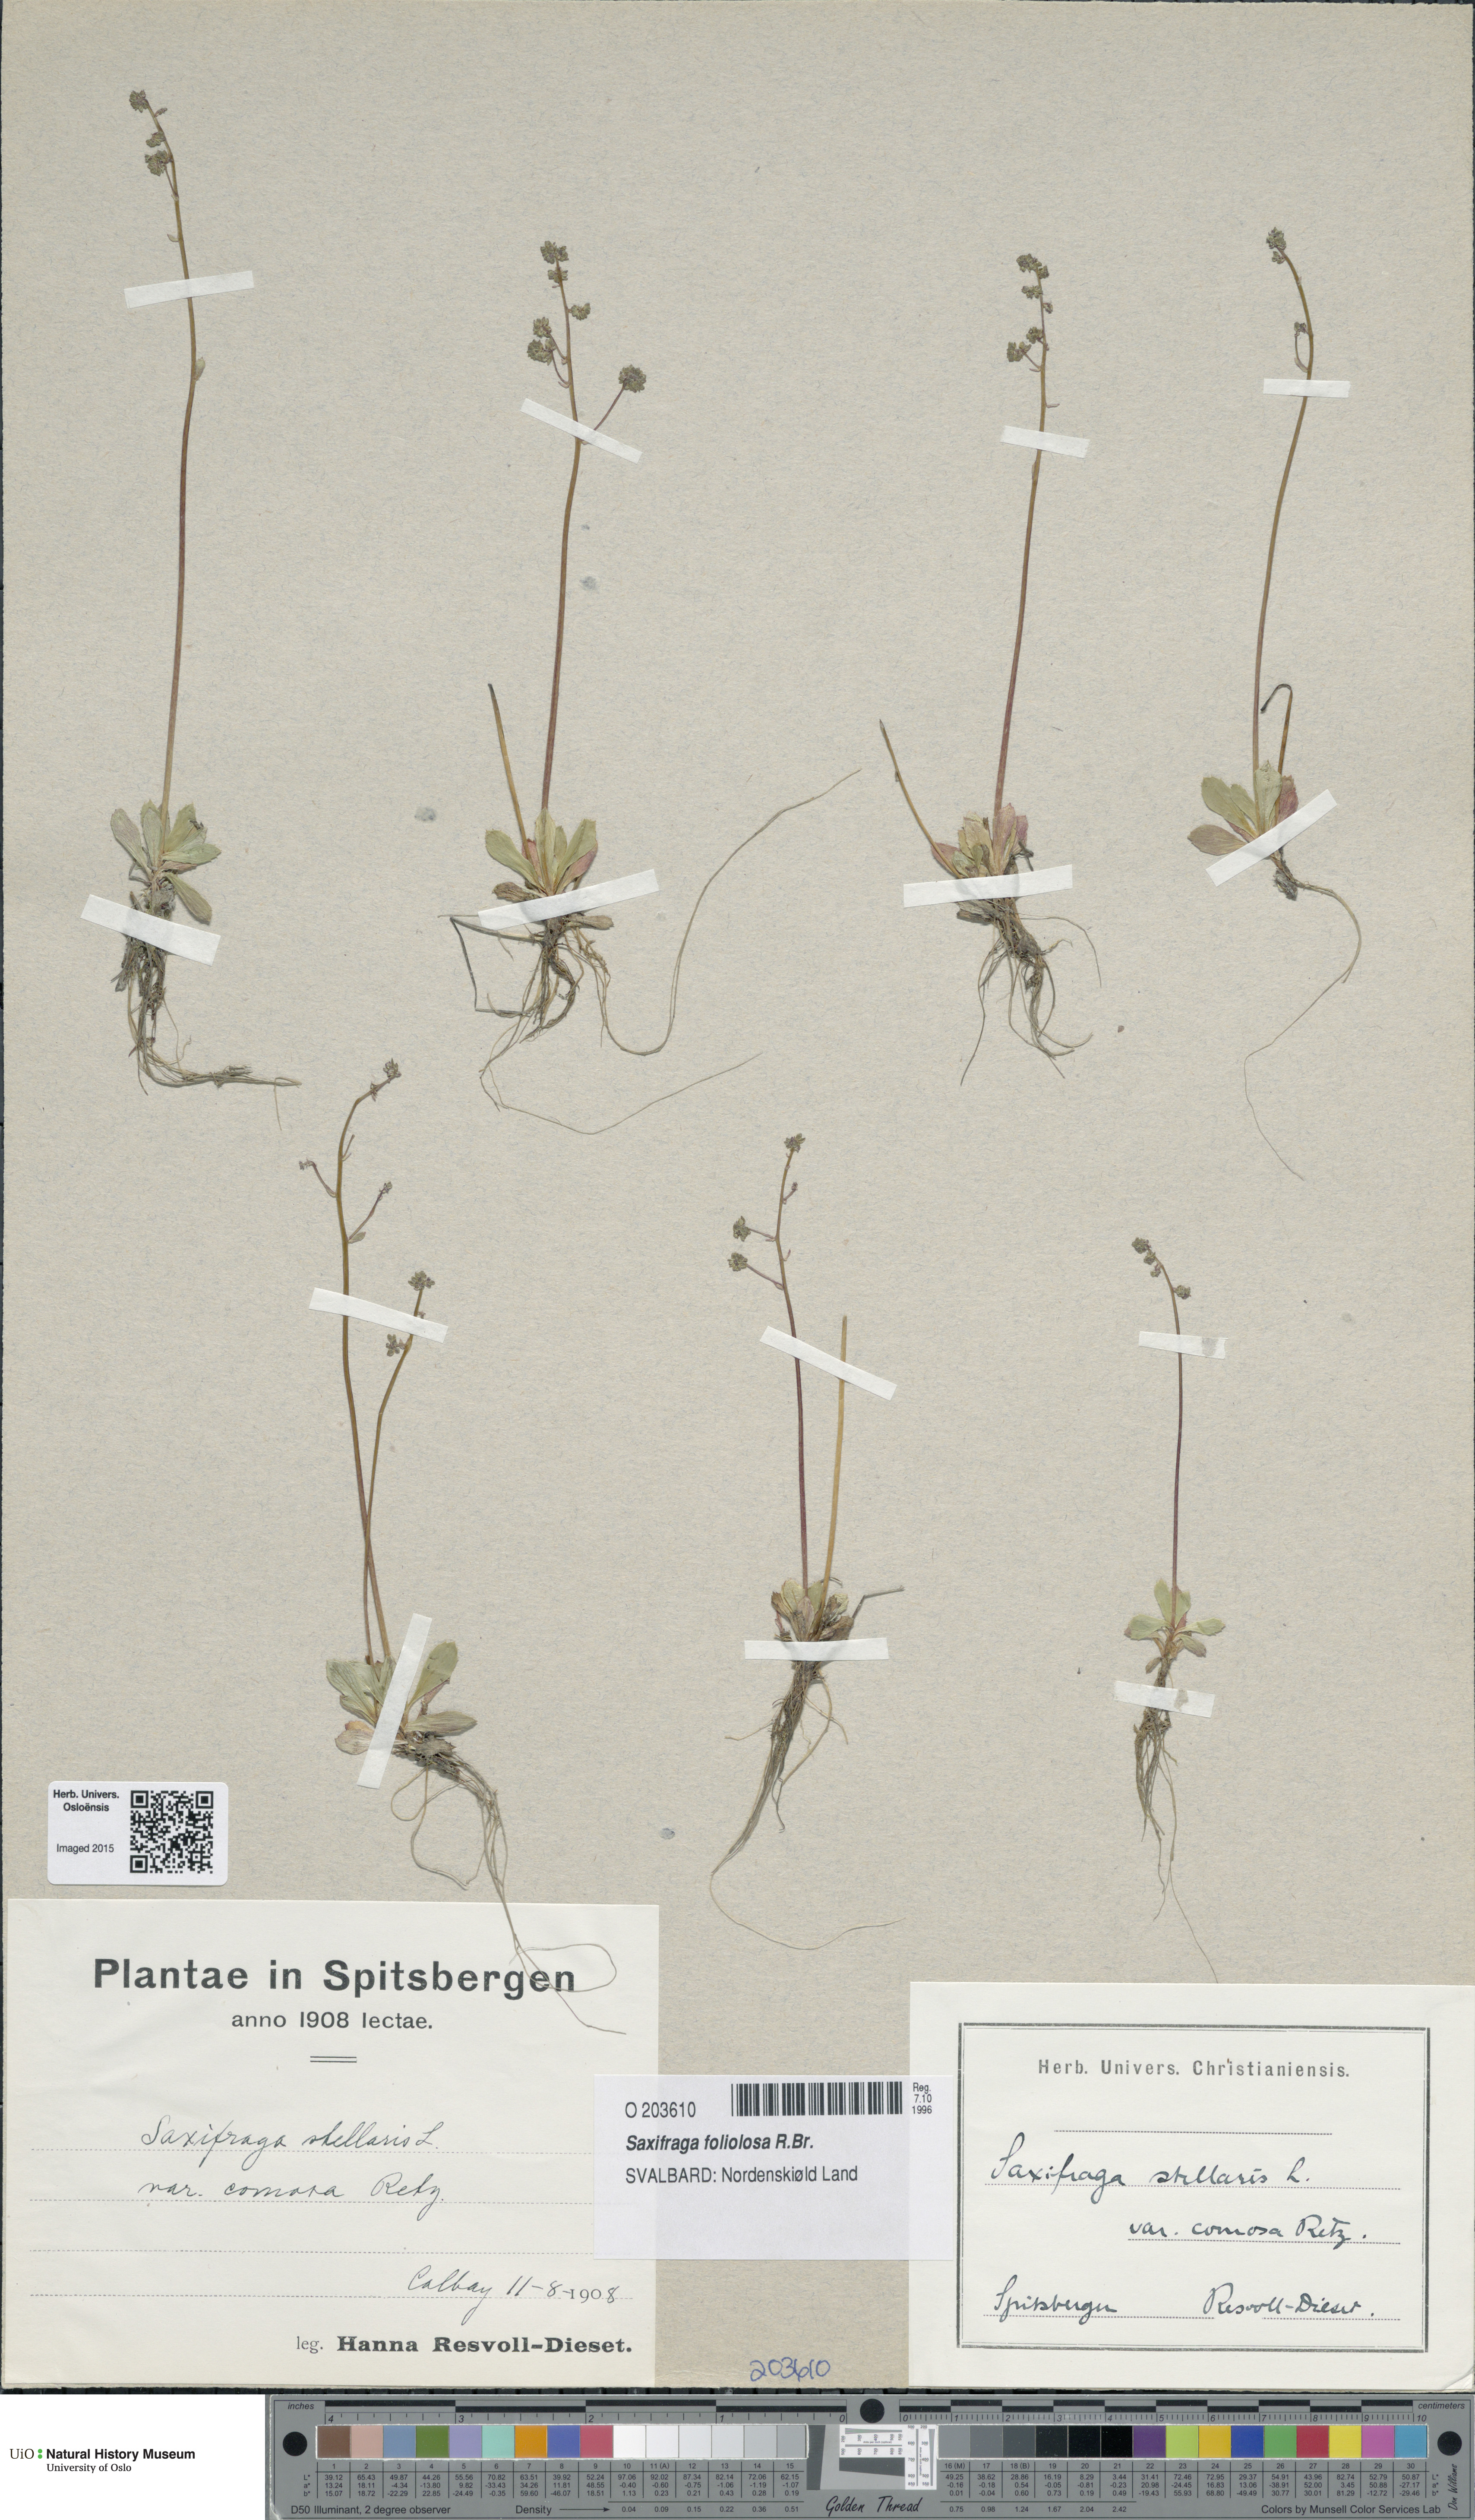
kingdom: Plantae
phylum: Tracheophyta
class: Magnoliopsida
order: Saxifragales
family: Saxifragaceae
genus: Micranthes
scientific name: Micranthes foliolosa
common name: Leafystem saxifrage
